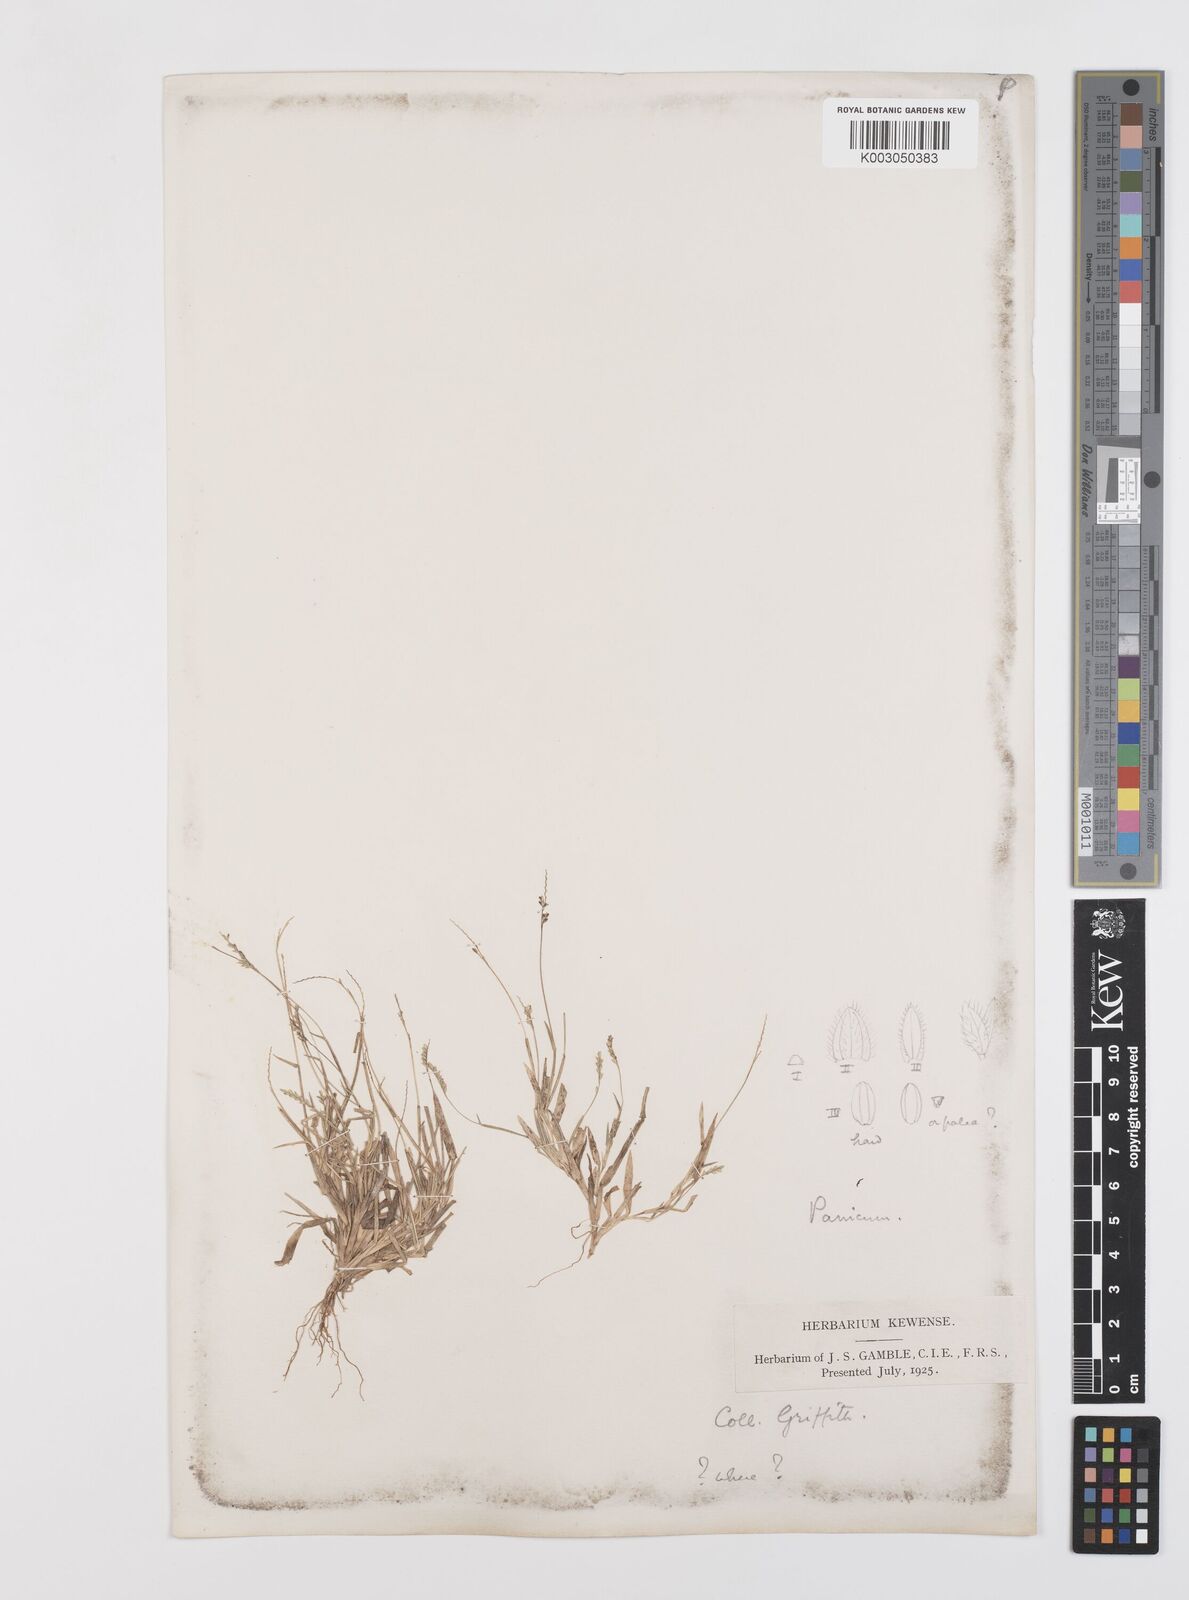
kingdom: Plantae
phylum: Tracheophyta
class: Liliopsida
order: Poales
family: Poaceae
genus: Moorochloa
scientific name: Moorochloa eruciformis
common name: Sweet signalgrass
